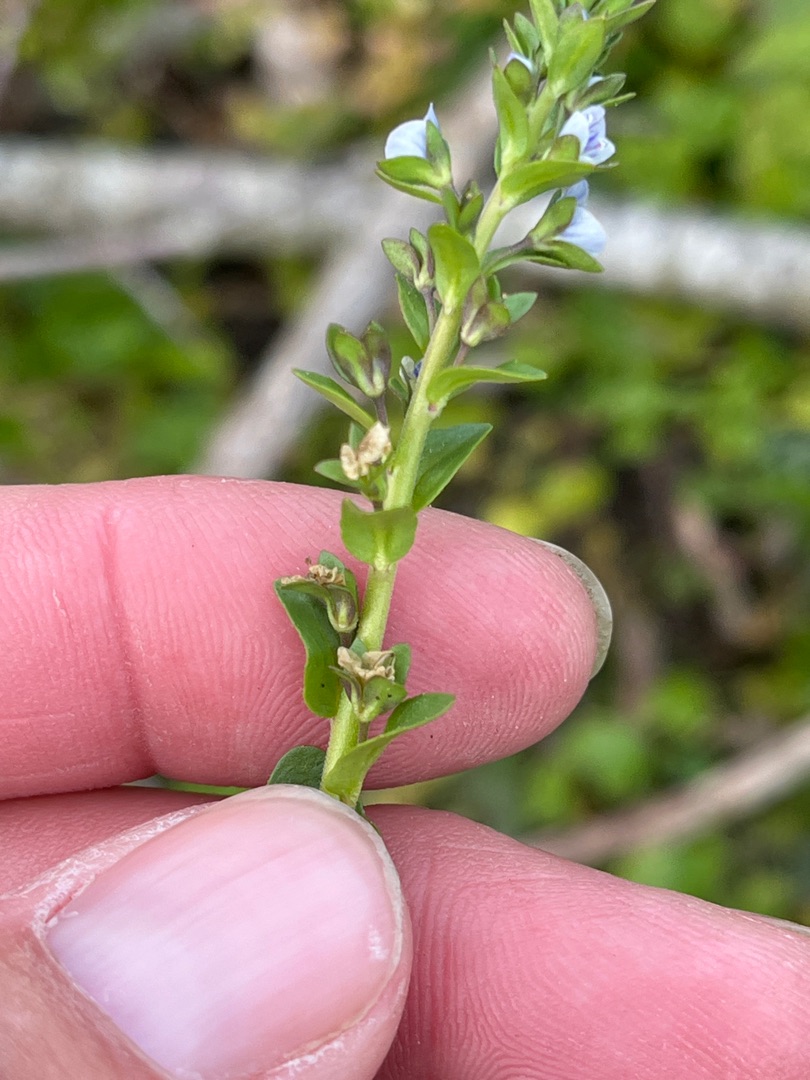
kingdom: Plantae
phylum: Tracheophyta
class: Magnoliopsida
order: Lamiales
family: Plantaginaceae
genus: Veronica
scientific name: Veronica serpyllifolia
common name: Glat ærenpris
